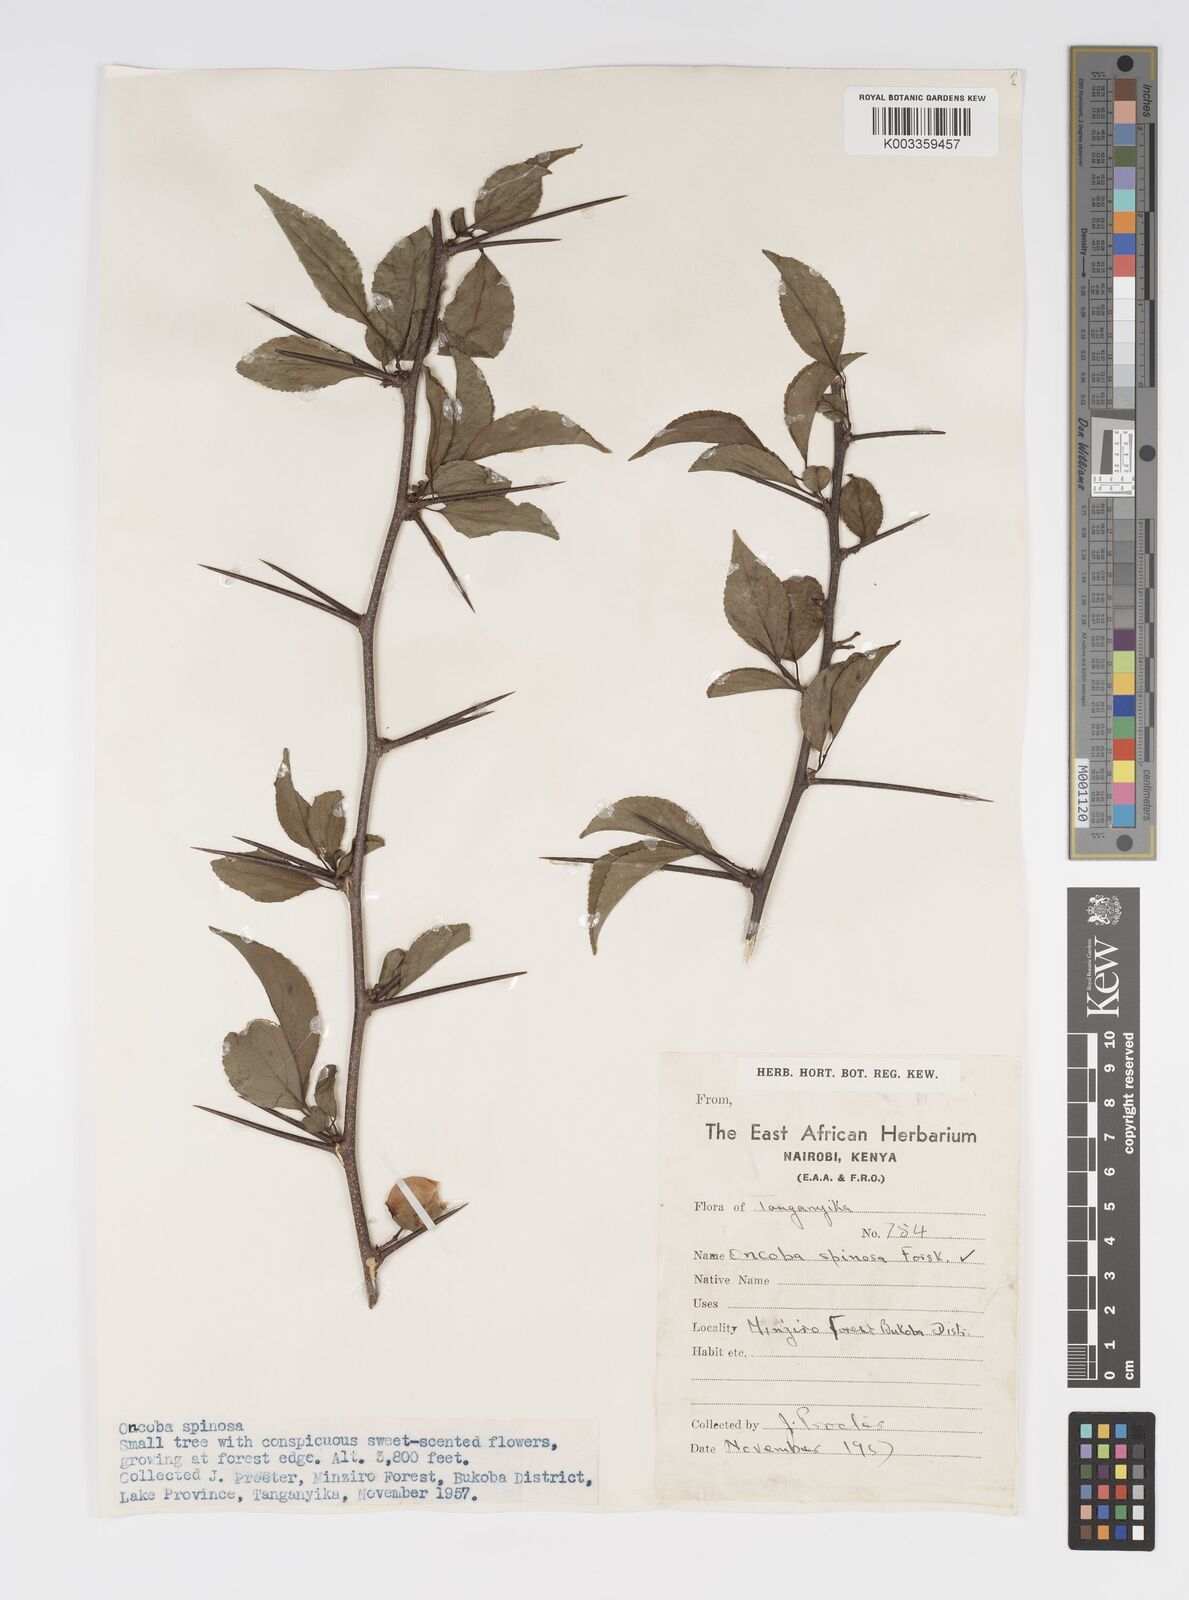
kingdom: Plantae
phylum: Tracheophyta
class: Magnoliopsida
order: Malpighiales
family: Salicaceae
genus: Oncoba
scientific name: Oncoba spinosa
